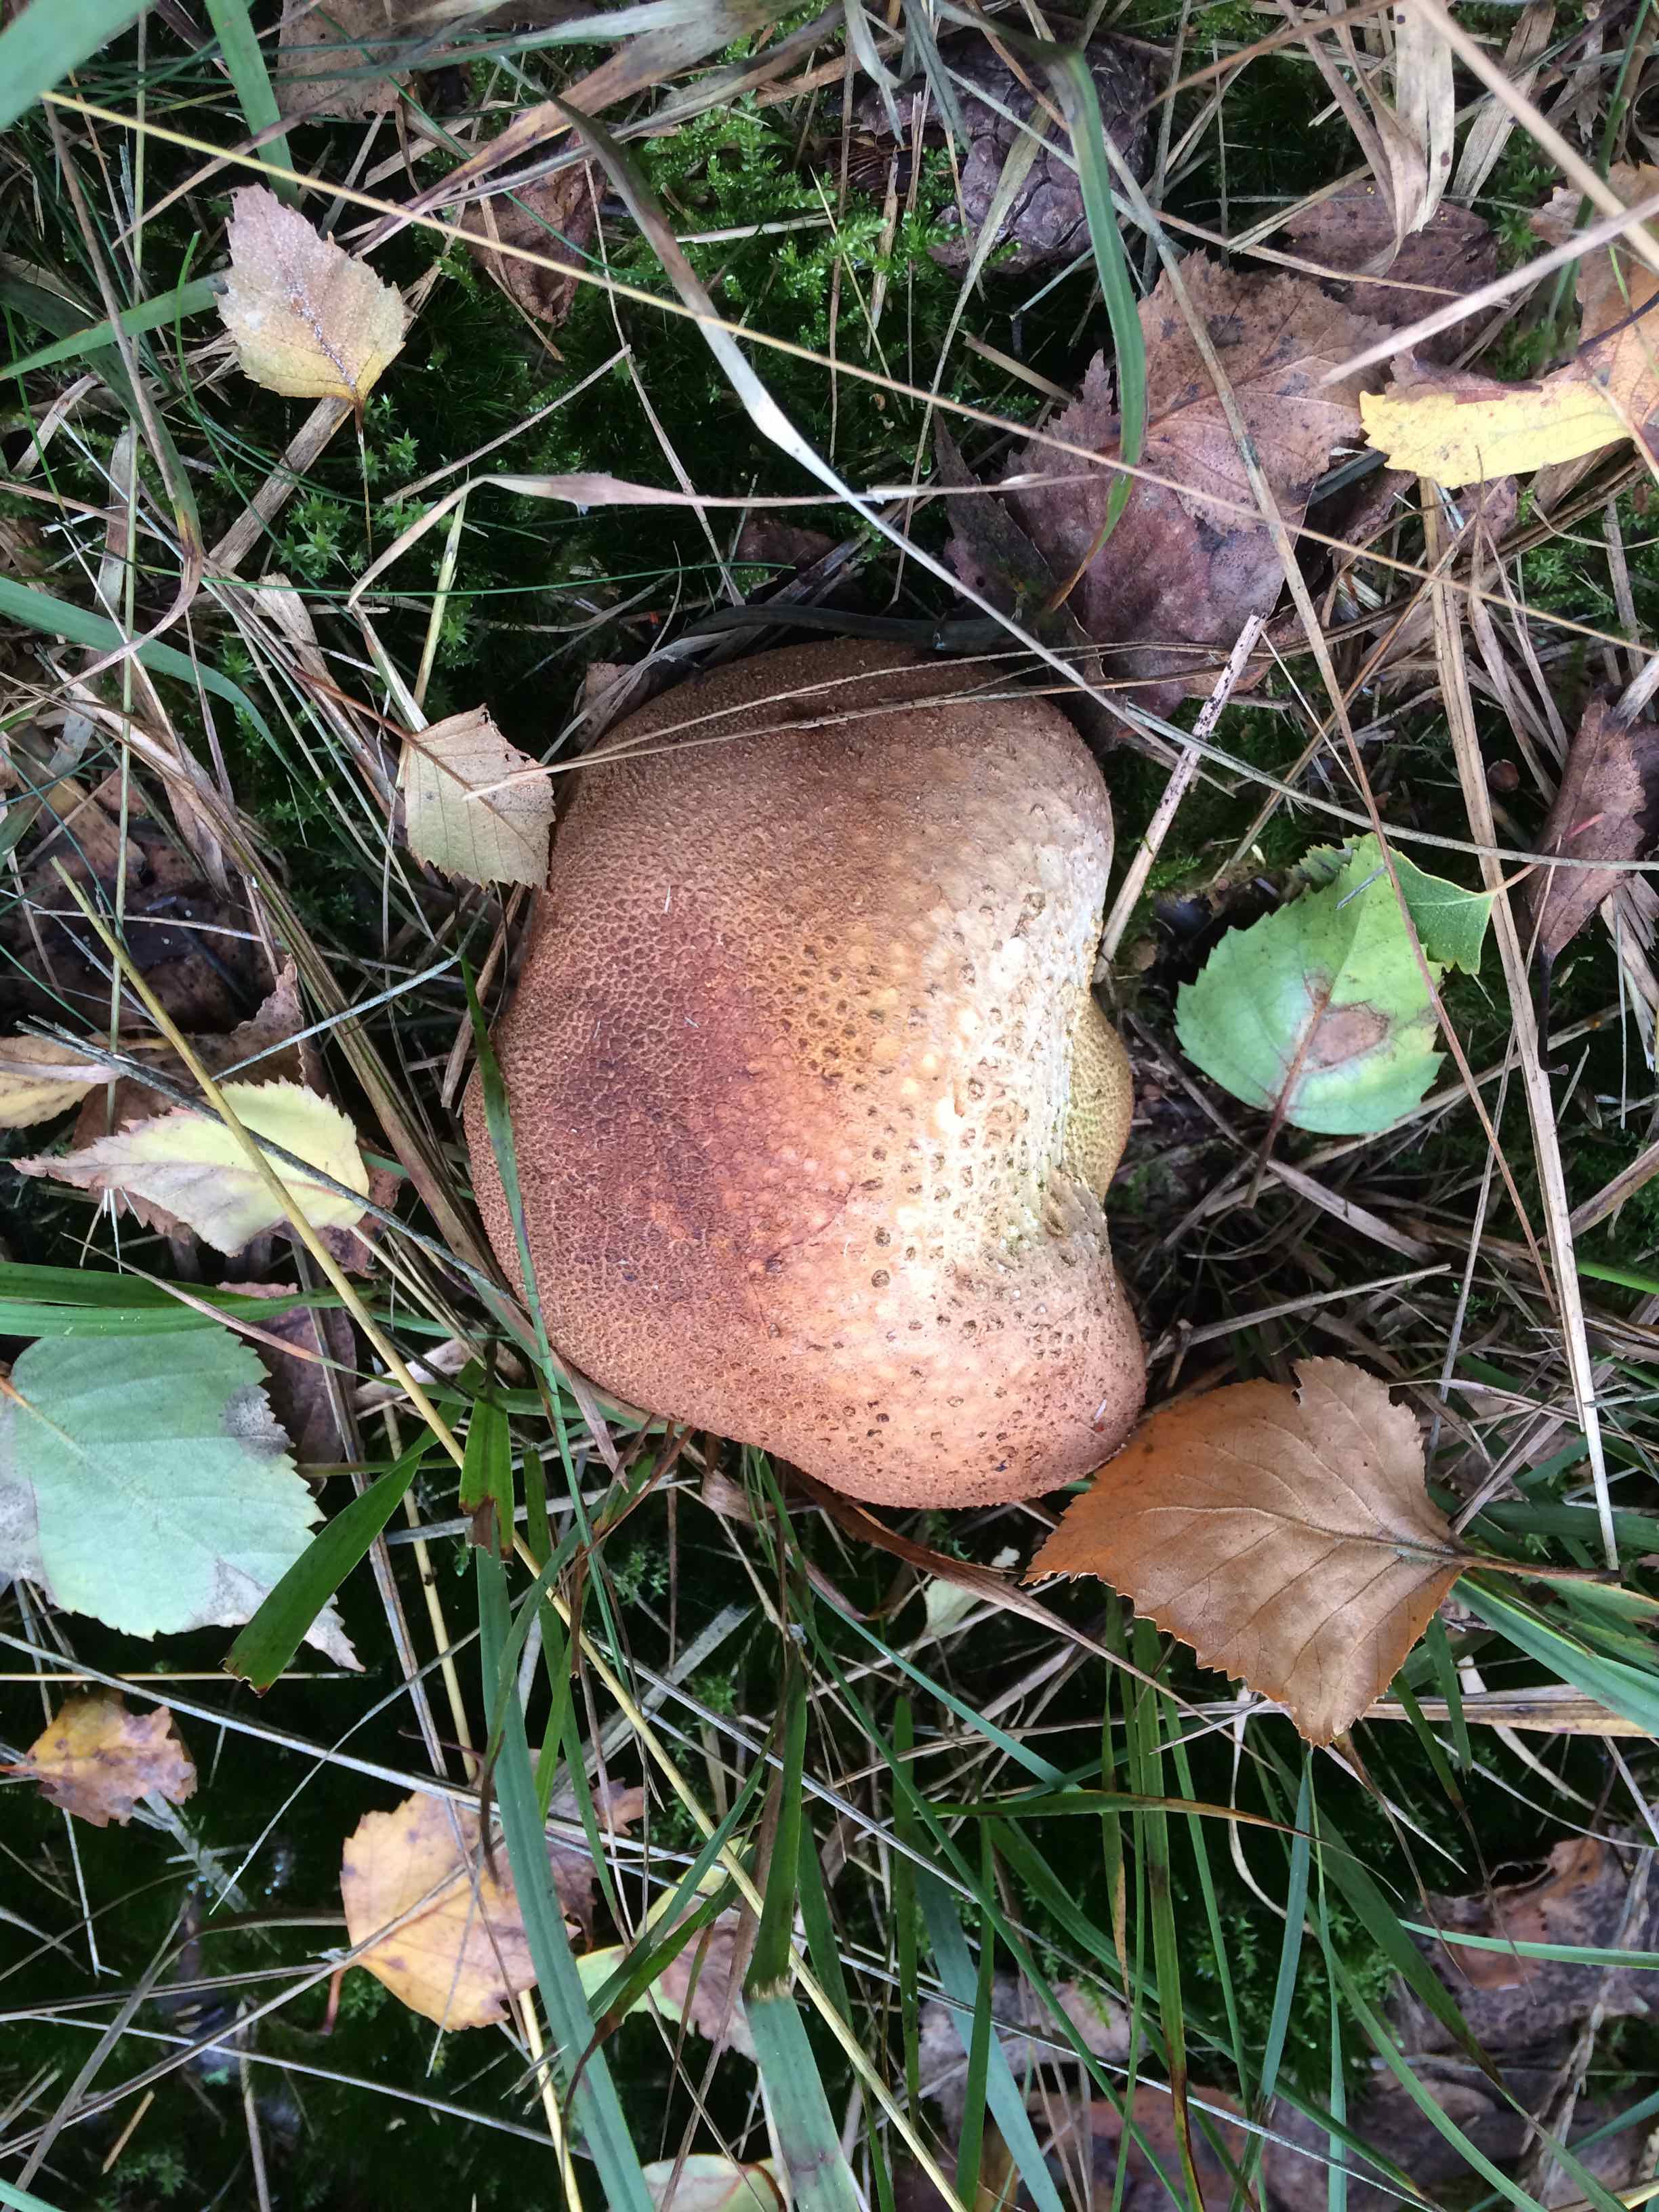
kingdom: Fungi
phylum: Basidiomycota
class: Agaricomycetes
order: Boletales
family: Sclerodermataceae
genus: Scleroderma
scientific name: Scleroderma citrinum
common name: almindelig bruskbold
